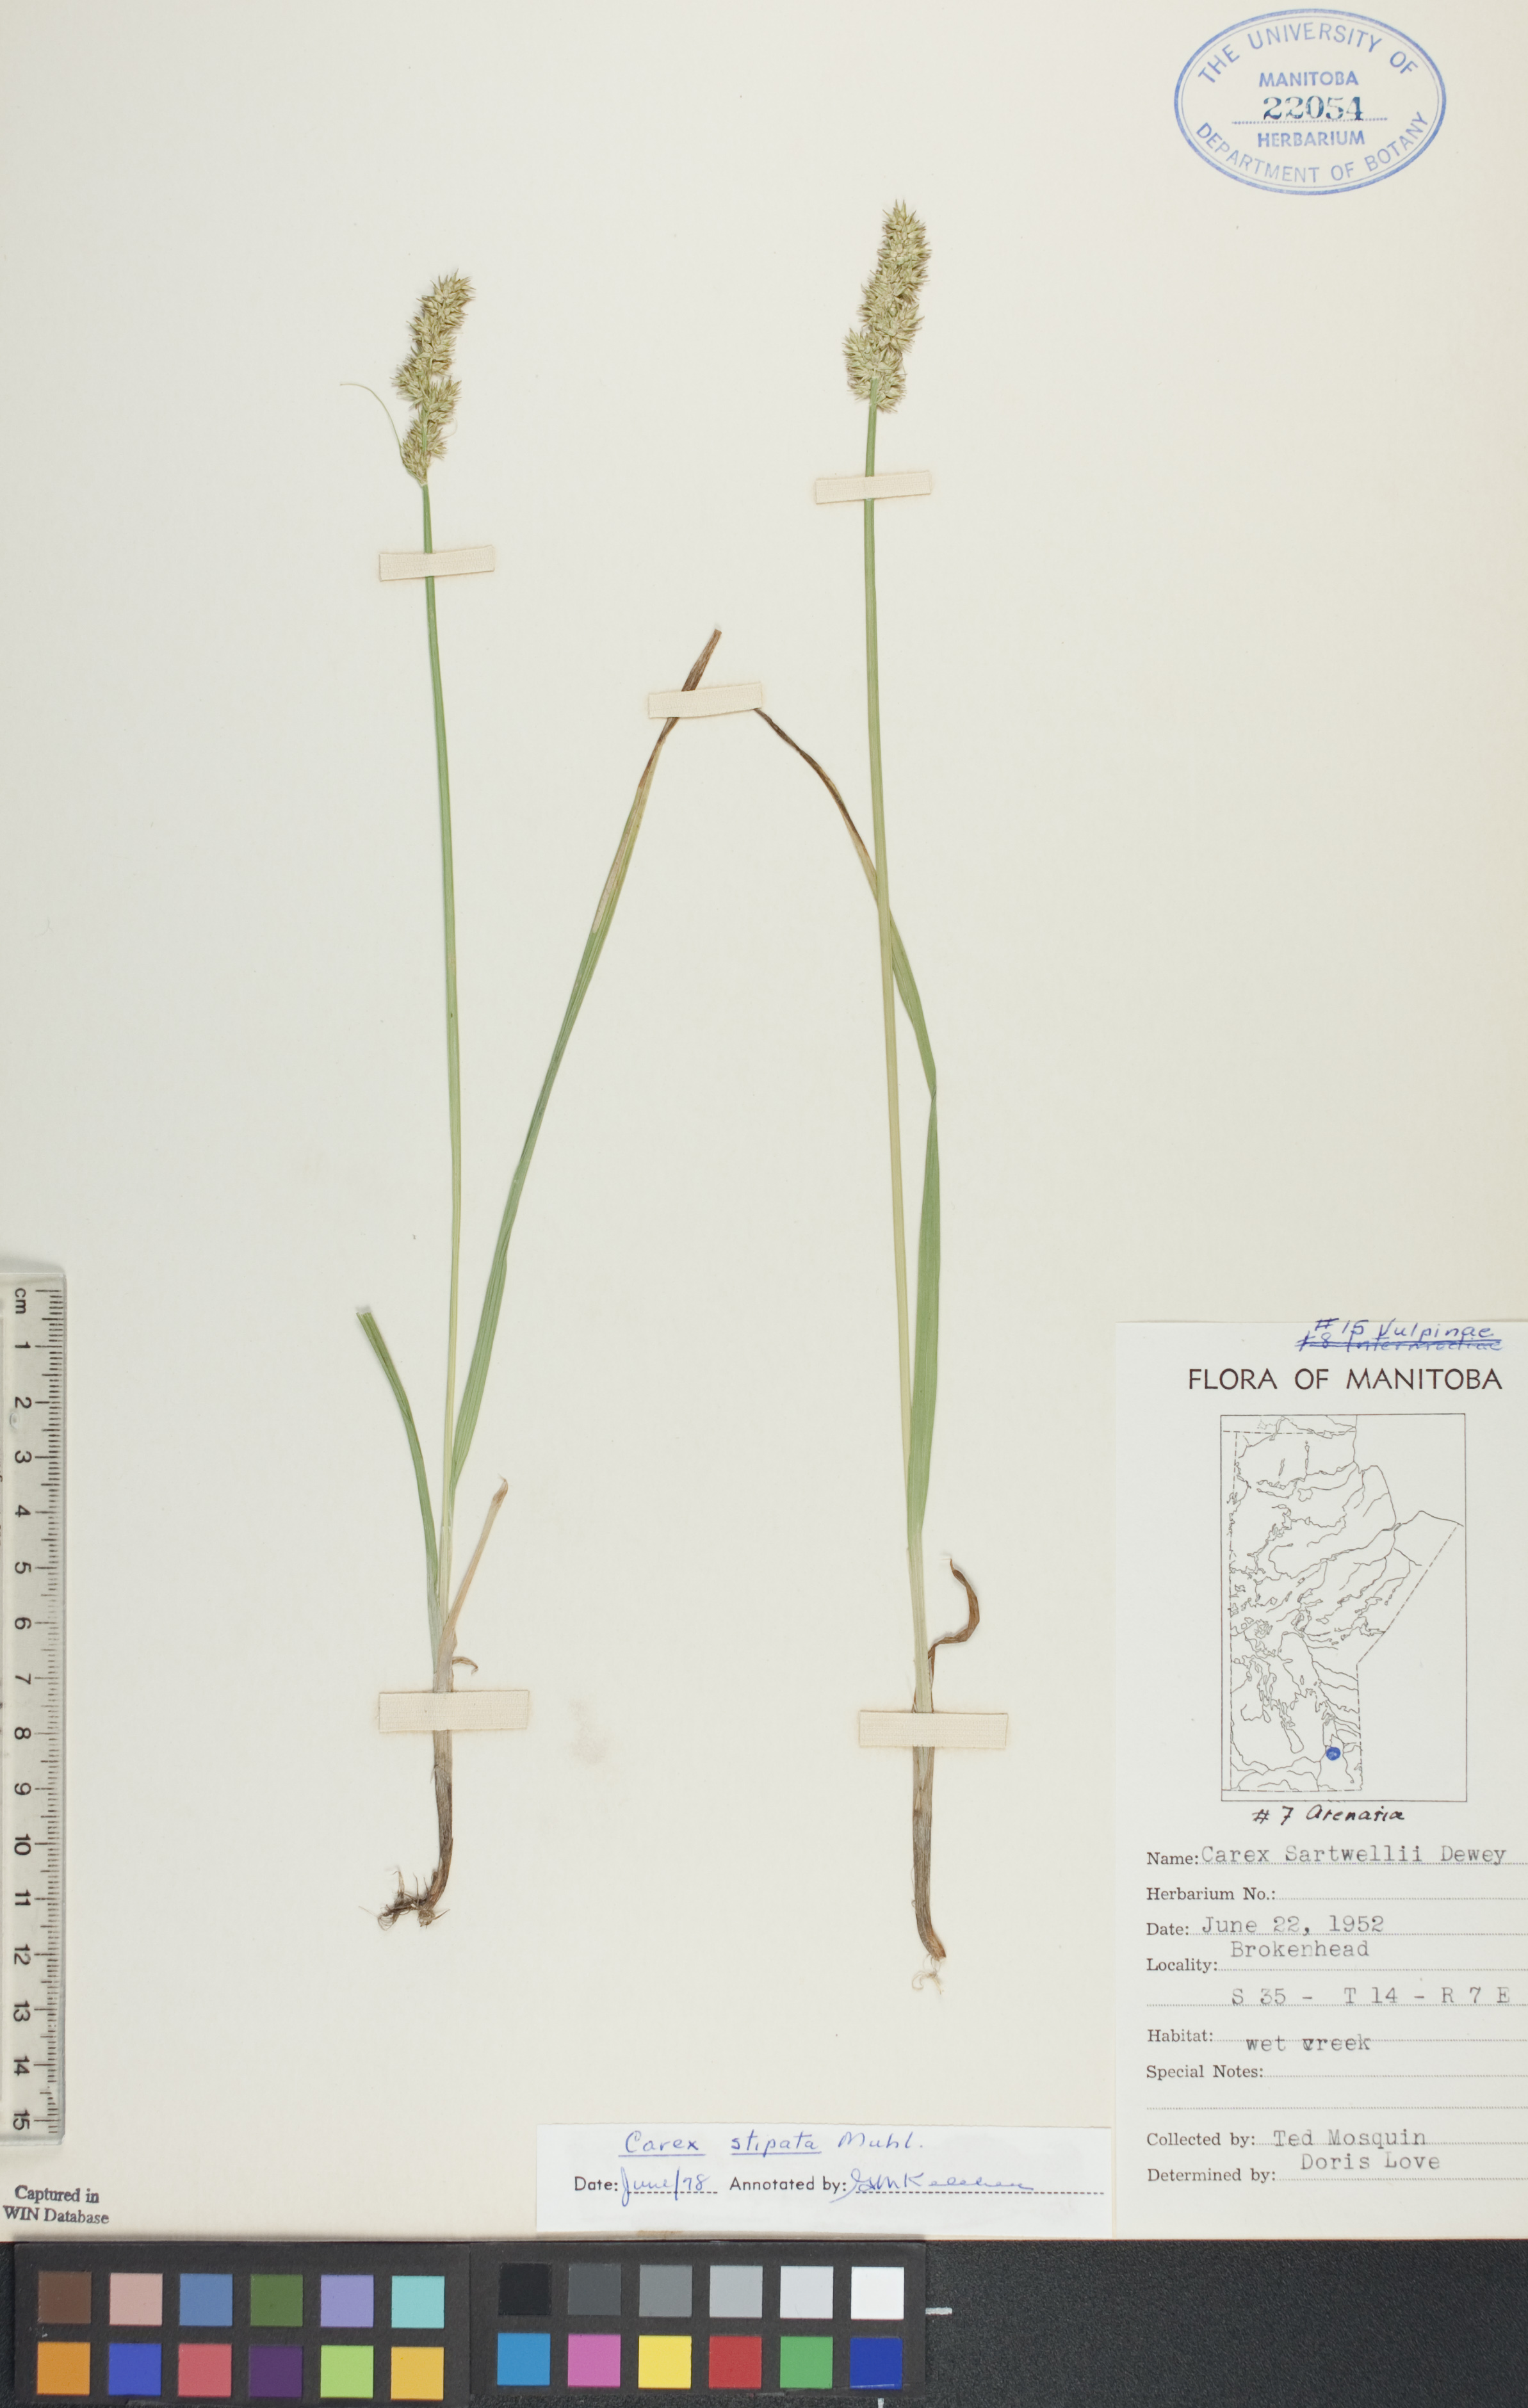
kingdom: Plantae
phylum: Tracheophyta
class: Liliopsida
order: Poales
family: Cyperaceae
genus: Carex
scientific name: Carex stipata
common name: Awl-fruited sedge
